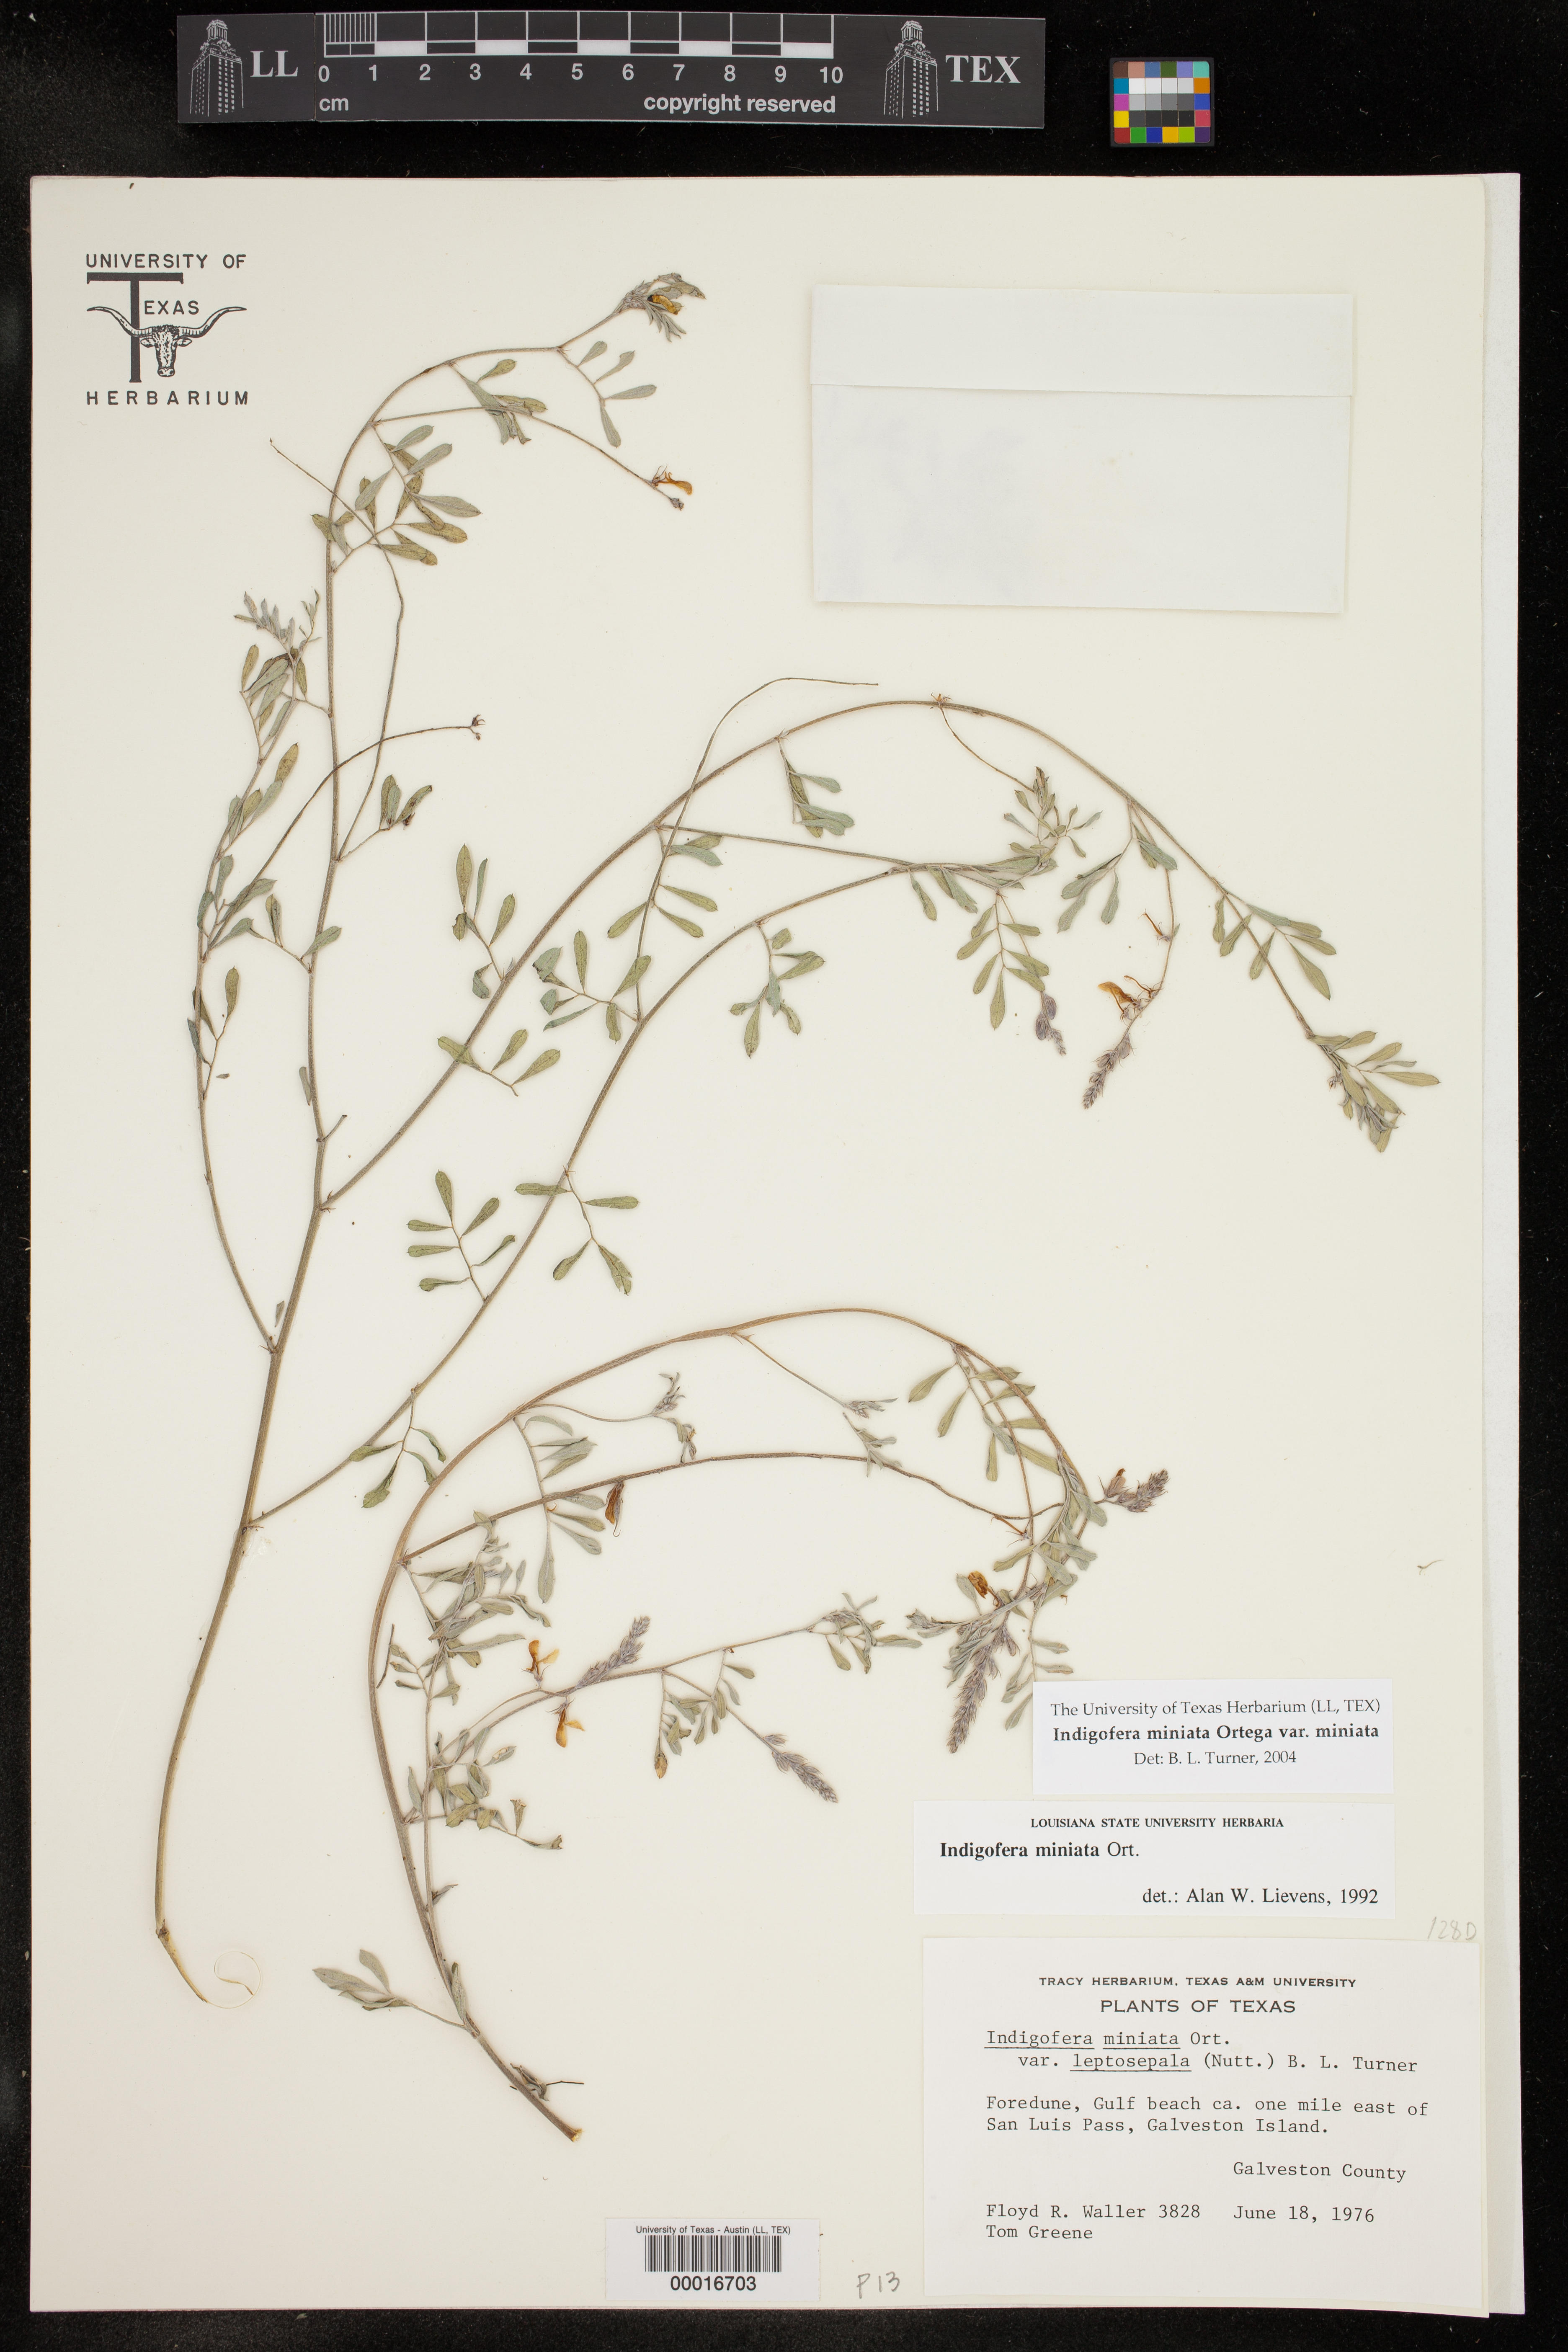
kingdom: Plantae
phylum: Tracheophyta
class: Magnoliopsida
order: Fabales
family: Fabaceae
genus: Indigofera
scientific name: Indigofera miniata
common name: Coast indigo
